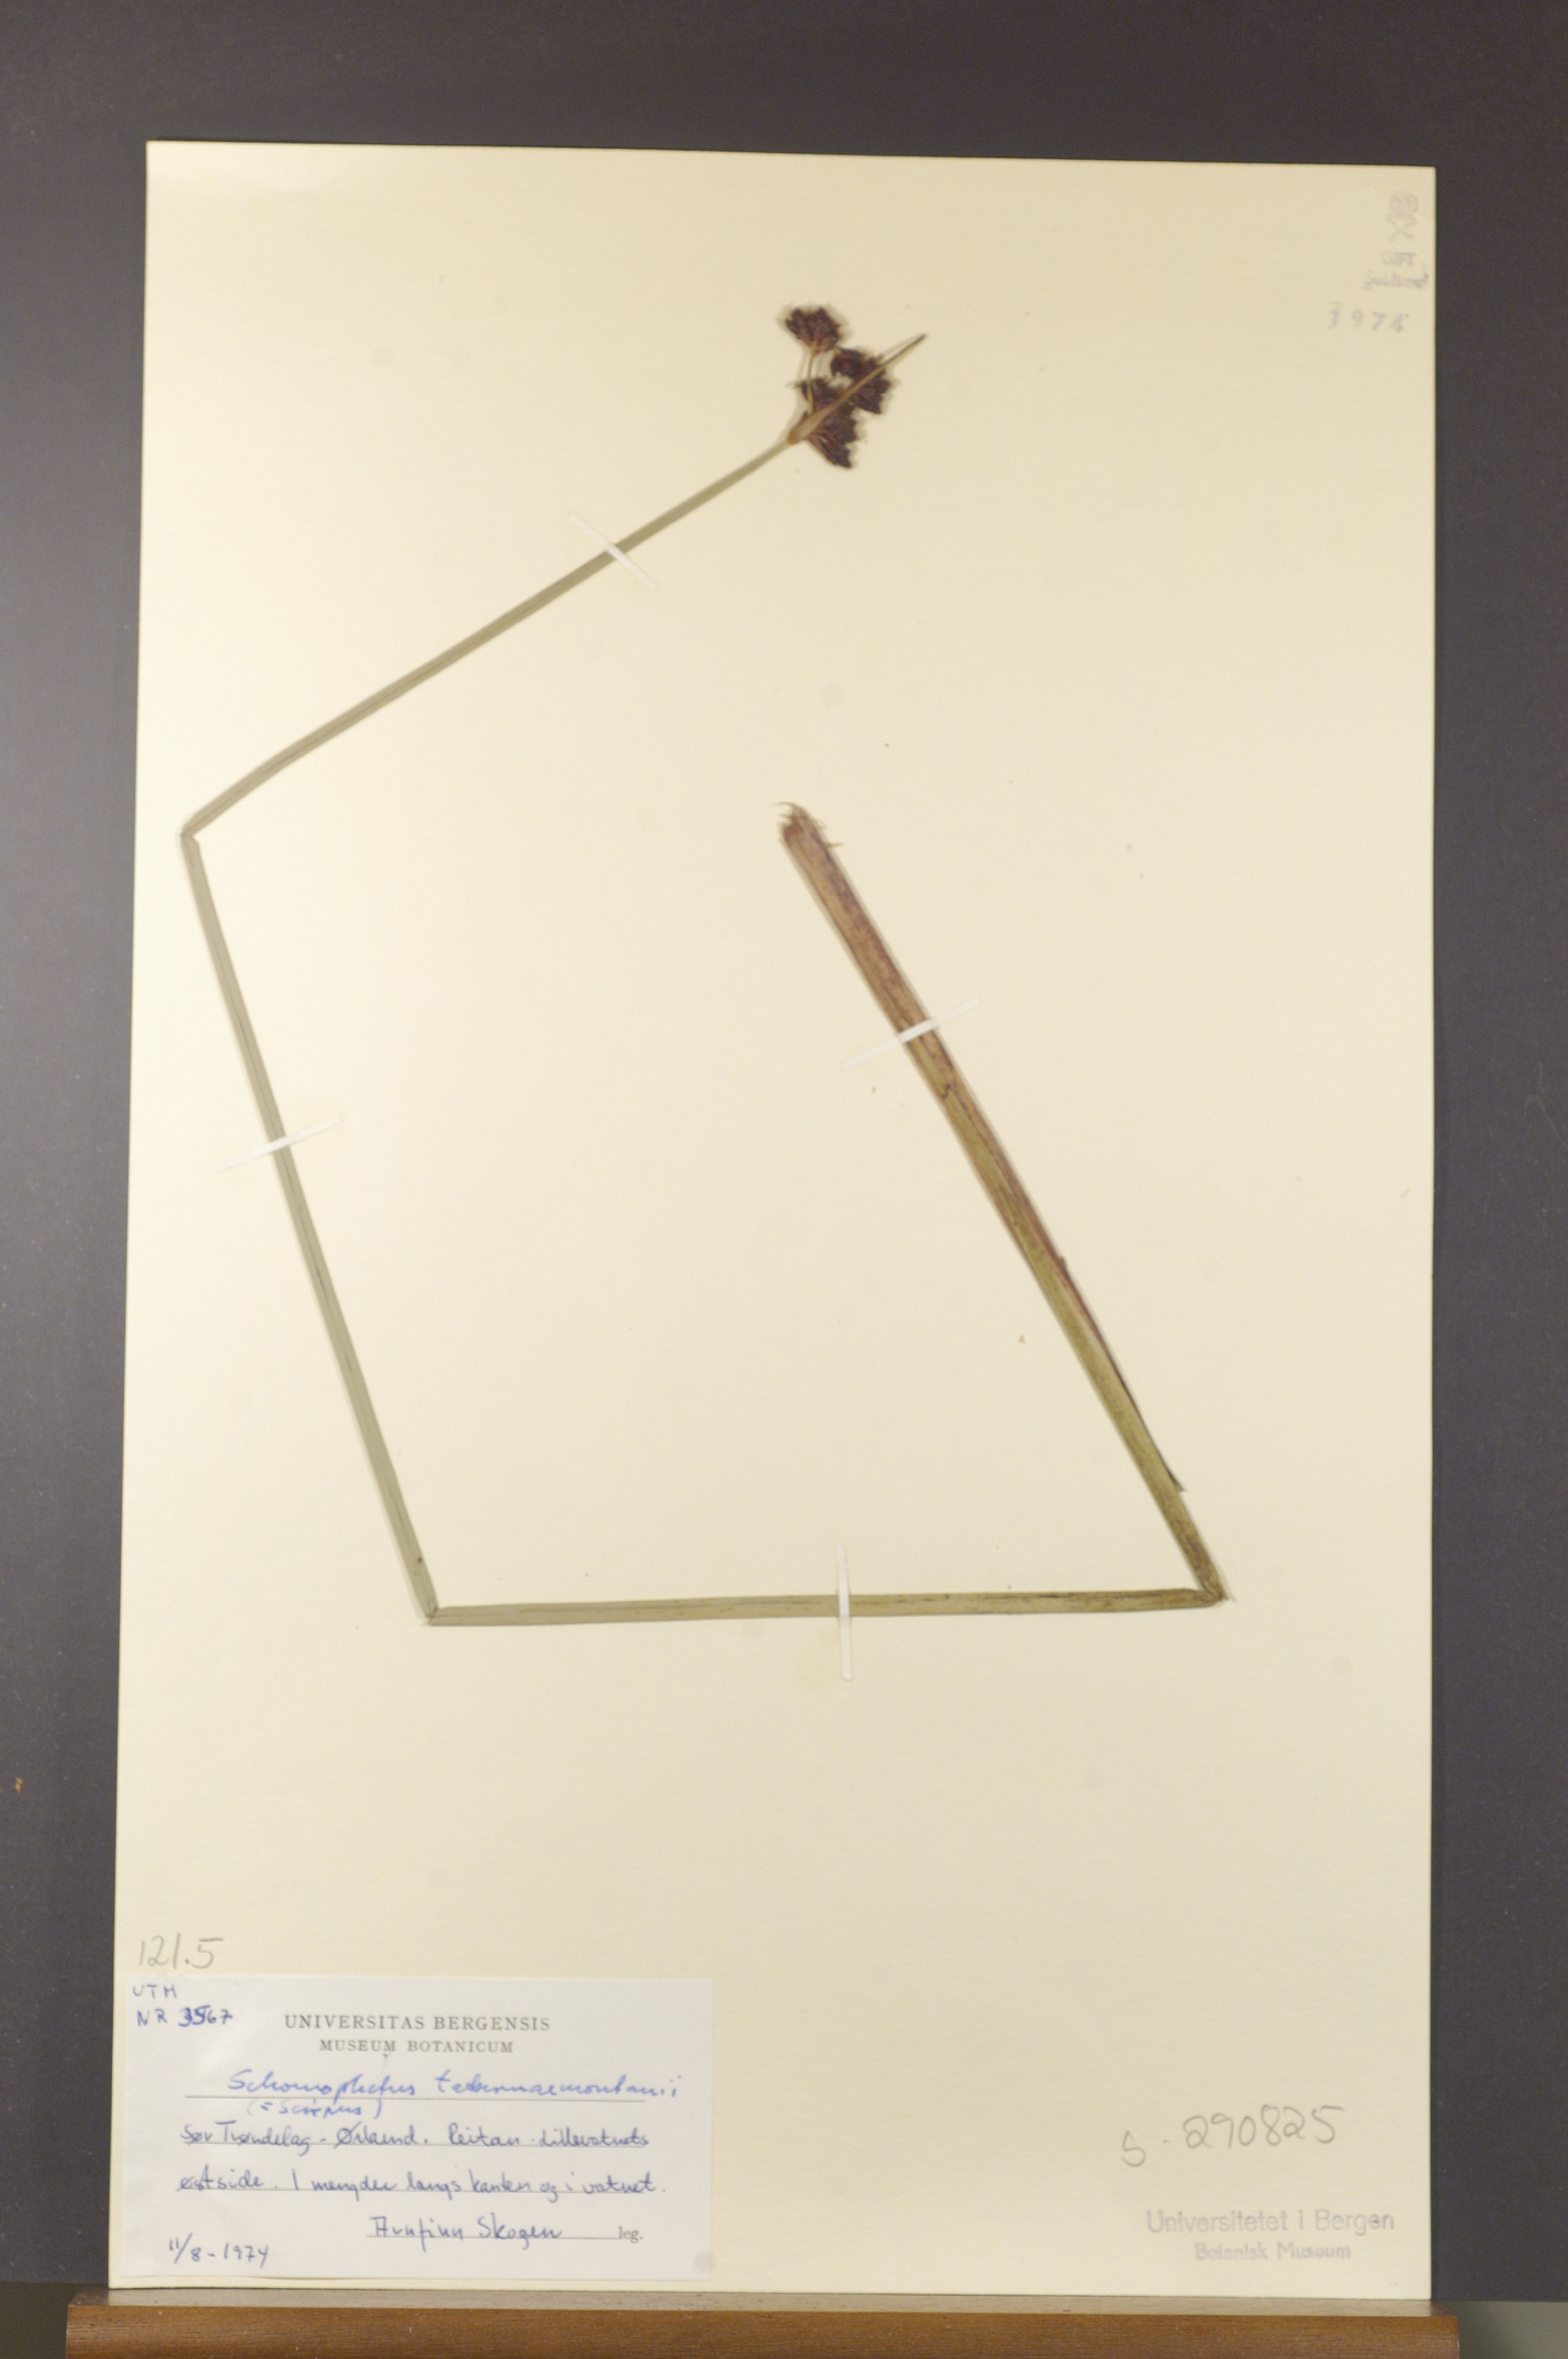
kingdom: Plantae
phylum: Tracheophyta
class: Liliopsida
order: Poales
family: Cyperaceae
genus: Schoenoplectus
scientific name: Schoenoplectus tabernaemontani
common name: Grey club-rush
